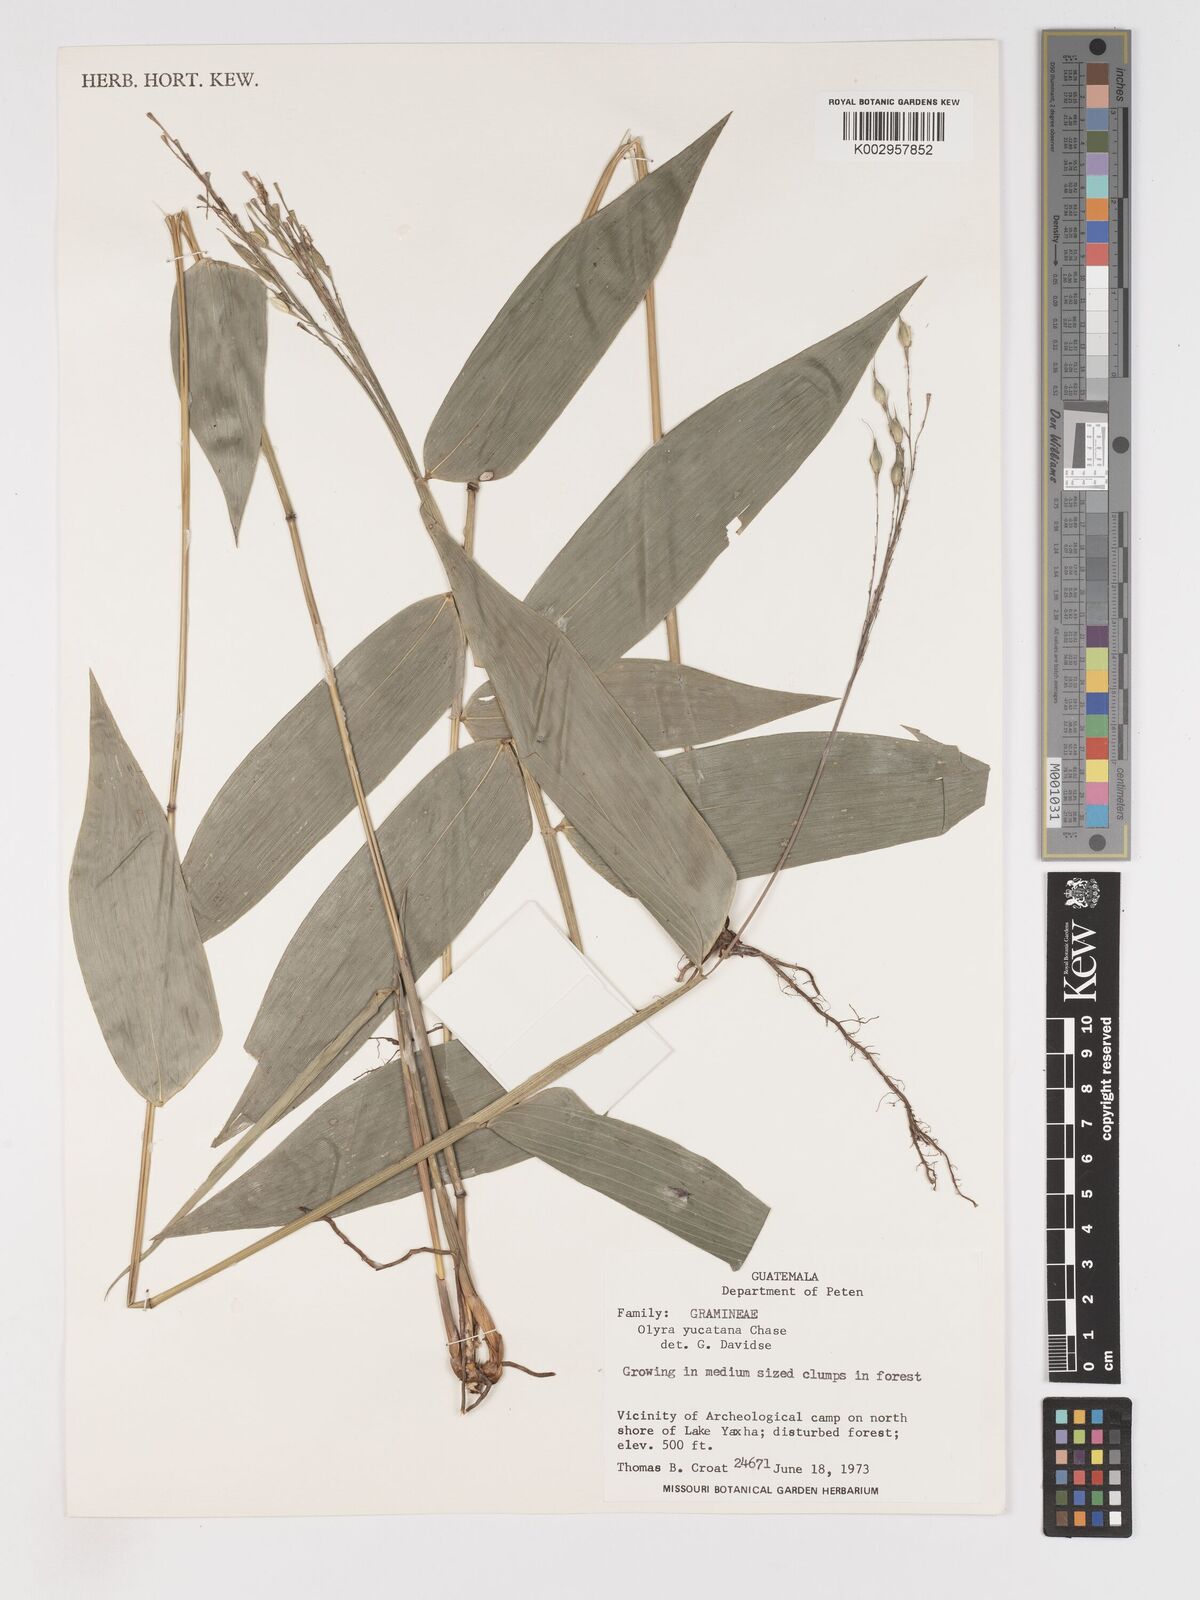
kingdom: Plantae
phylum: Tracheophyta
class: Liliopsida
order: Poales
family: Poaceae
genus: Olyra
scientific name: Olyra glaberrima
